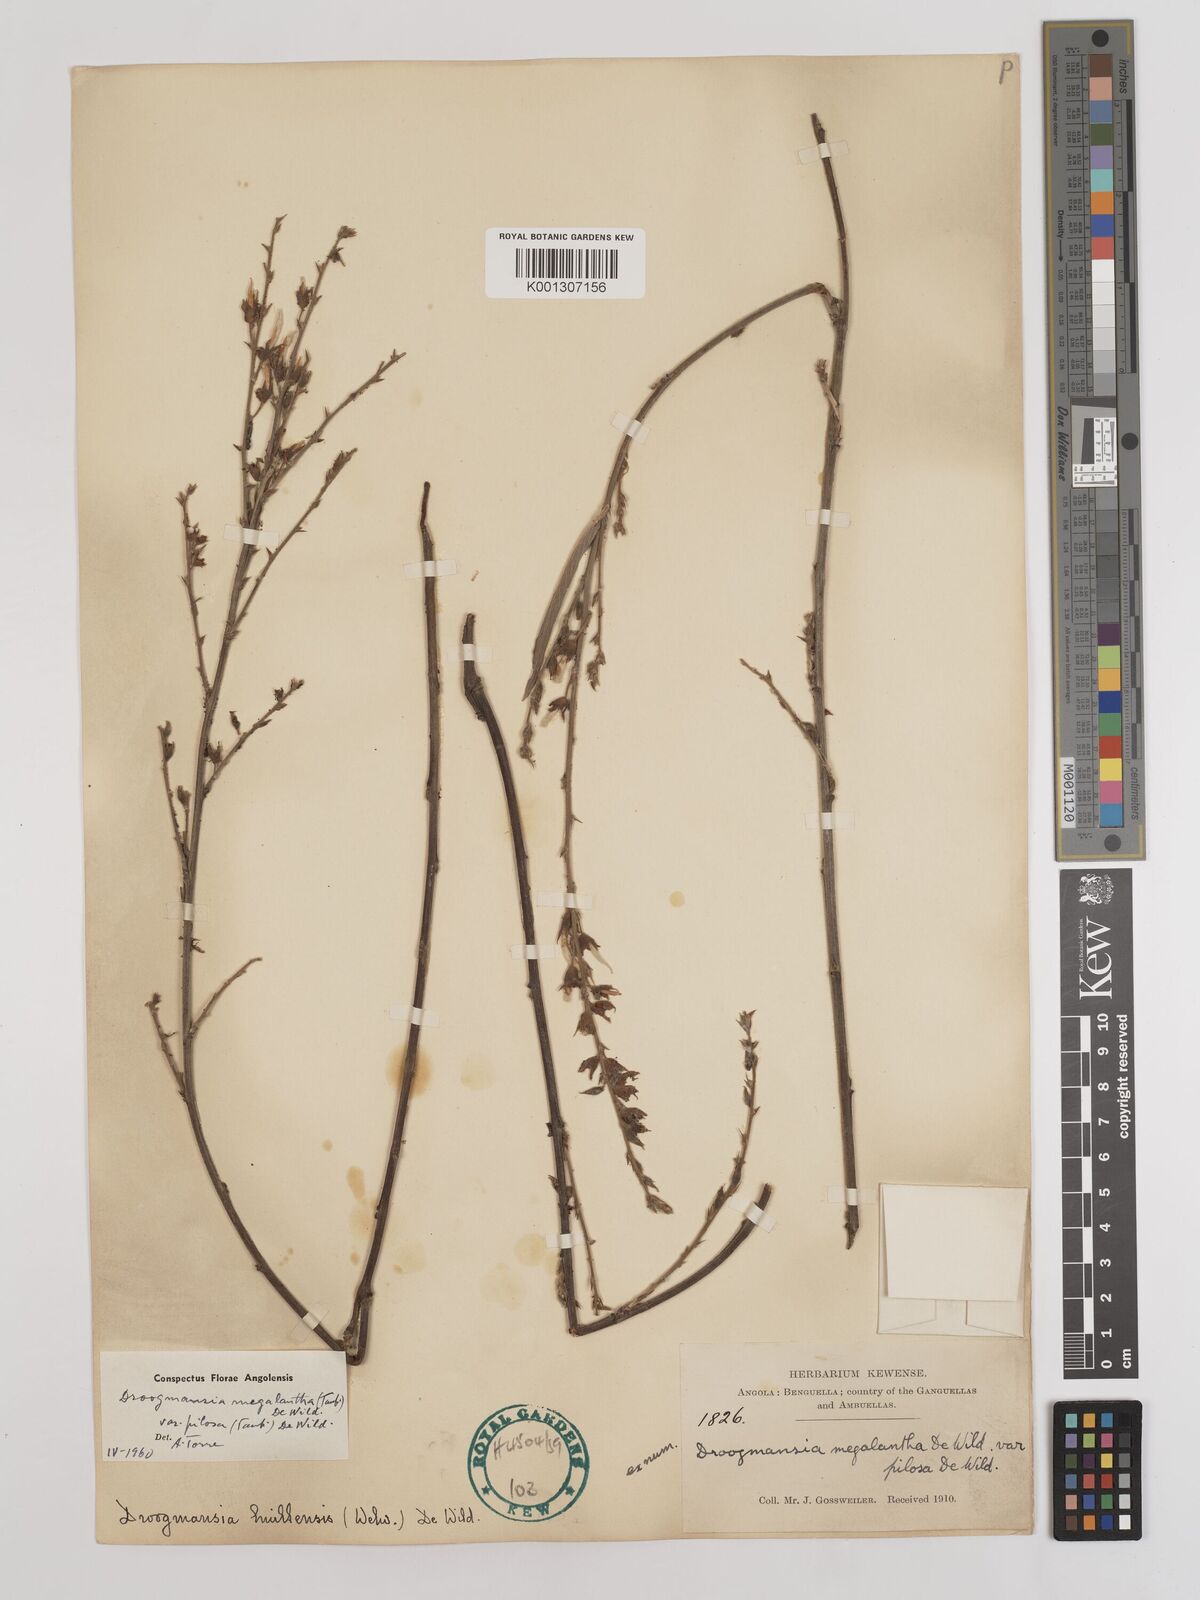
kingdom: Plantae
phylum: Tracheophyta
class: Magnoliopsida
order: Fabales
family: Fabaceae
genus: Droogmansia
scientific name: Droogmansia megalantha
